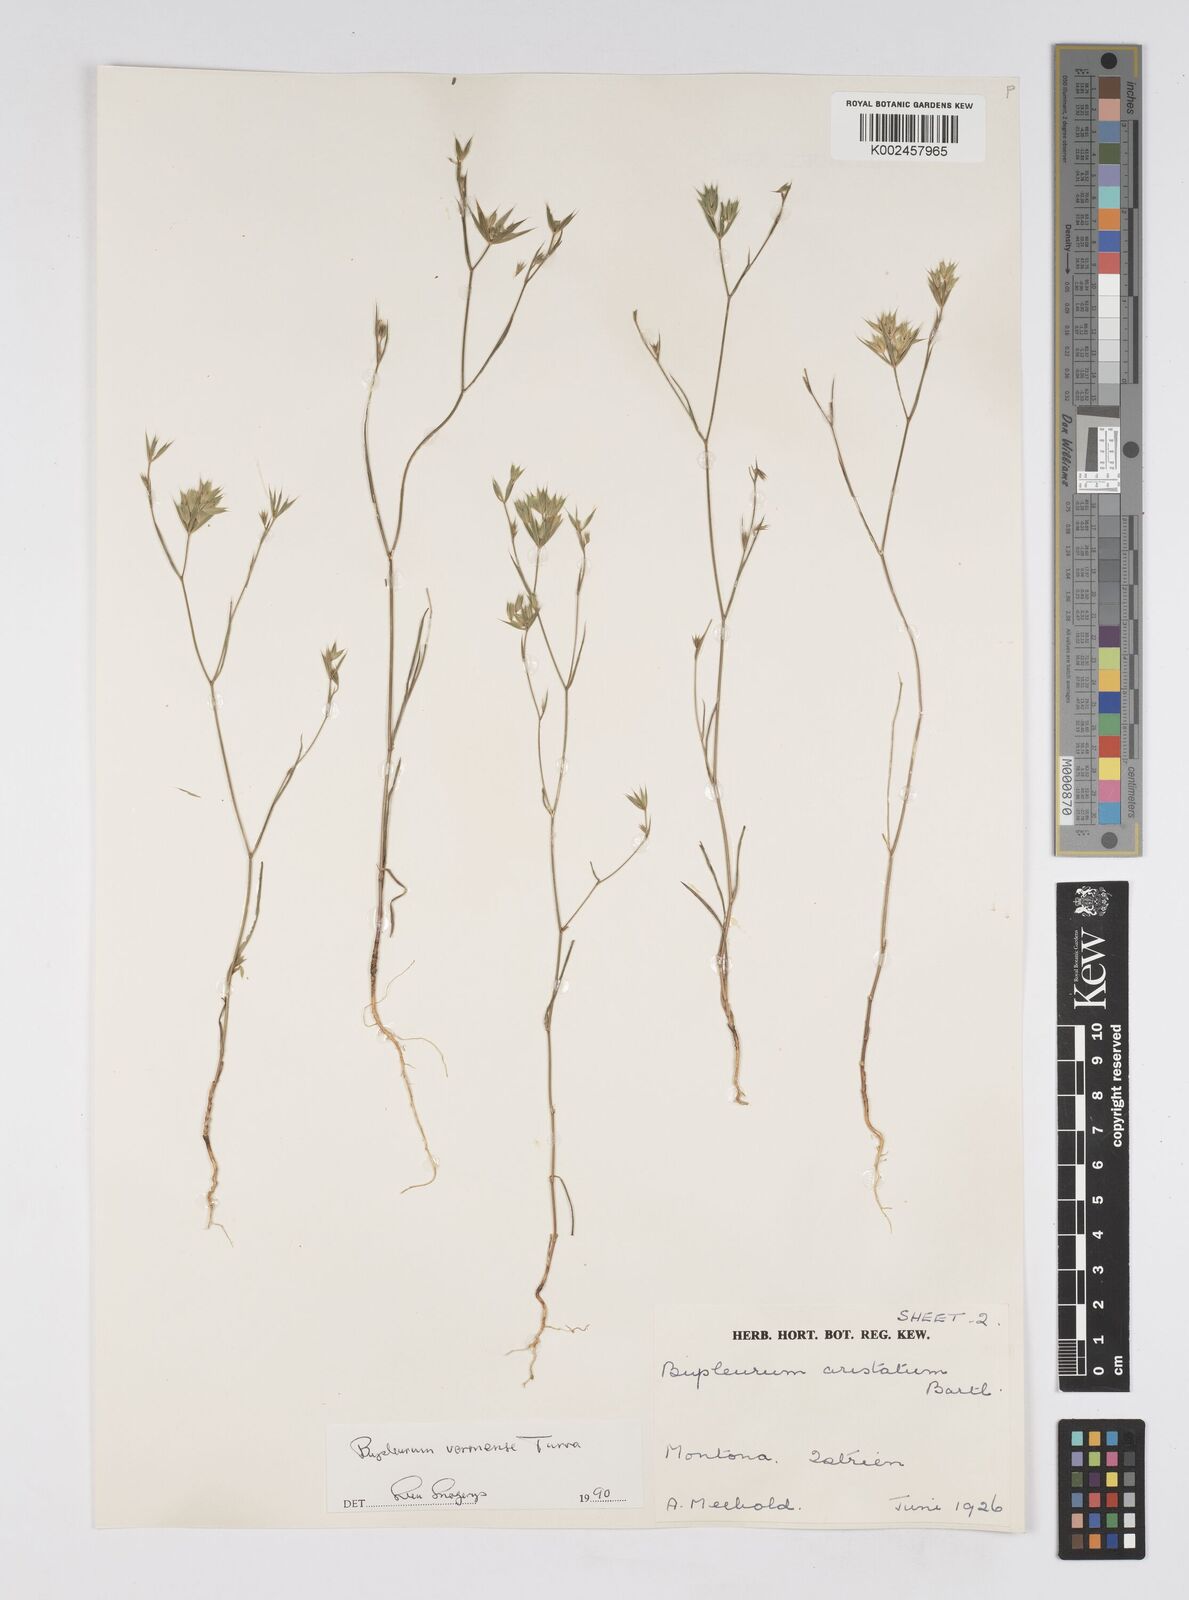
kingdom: Plantae
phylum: Tracheophyta
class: Magnoliopsida
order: Apiales
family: Apiaceae
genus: Bupleurum
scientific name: Bupleurum glumaceum
